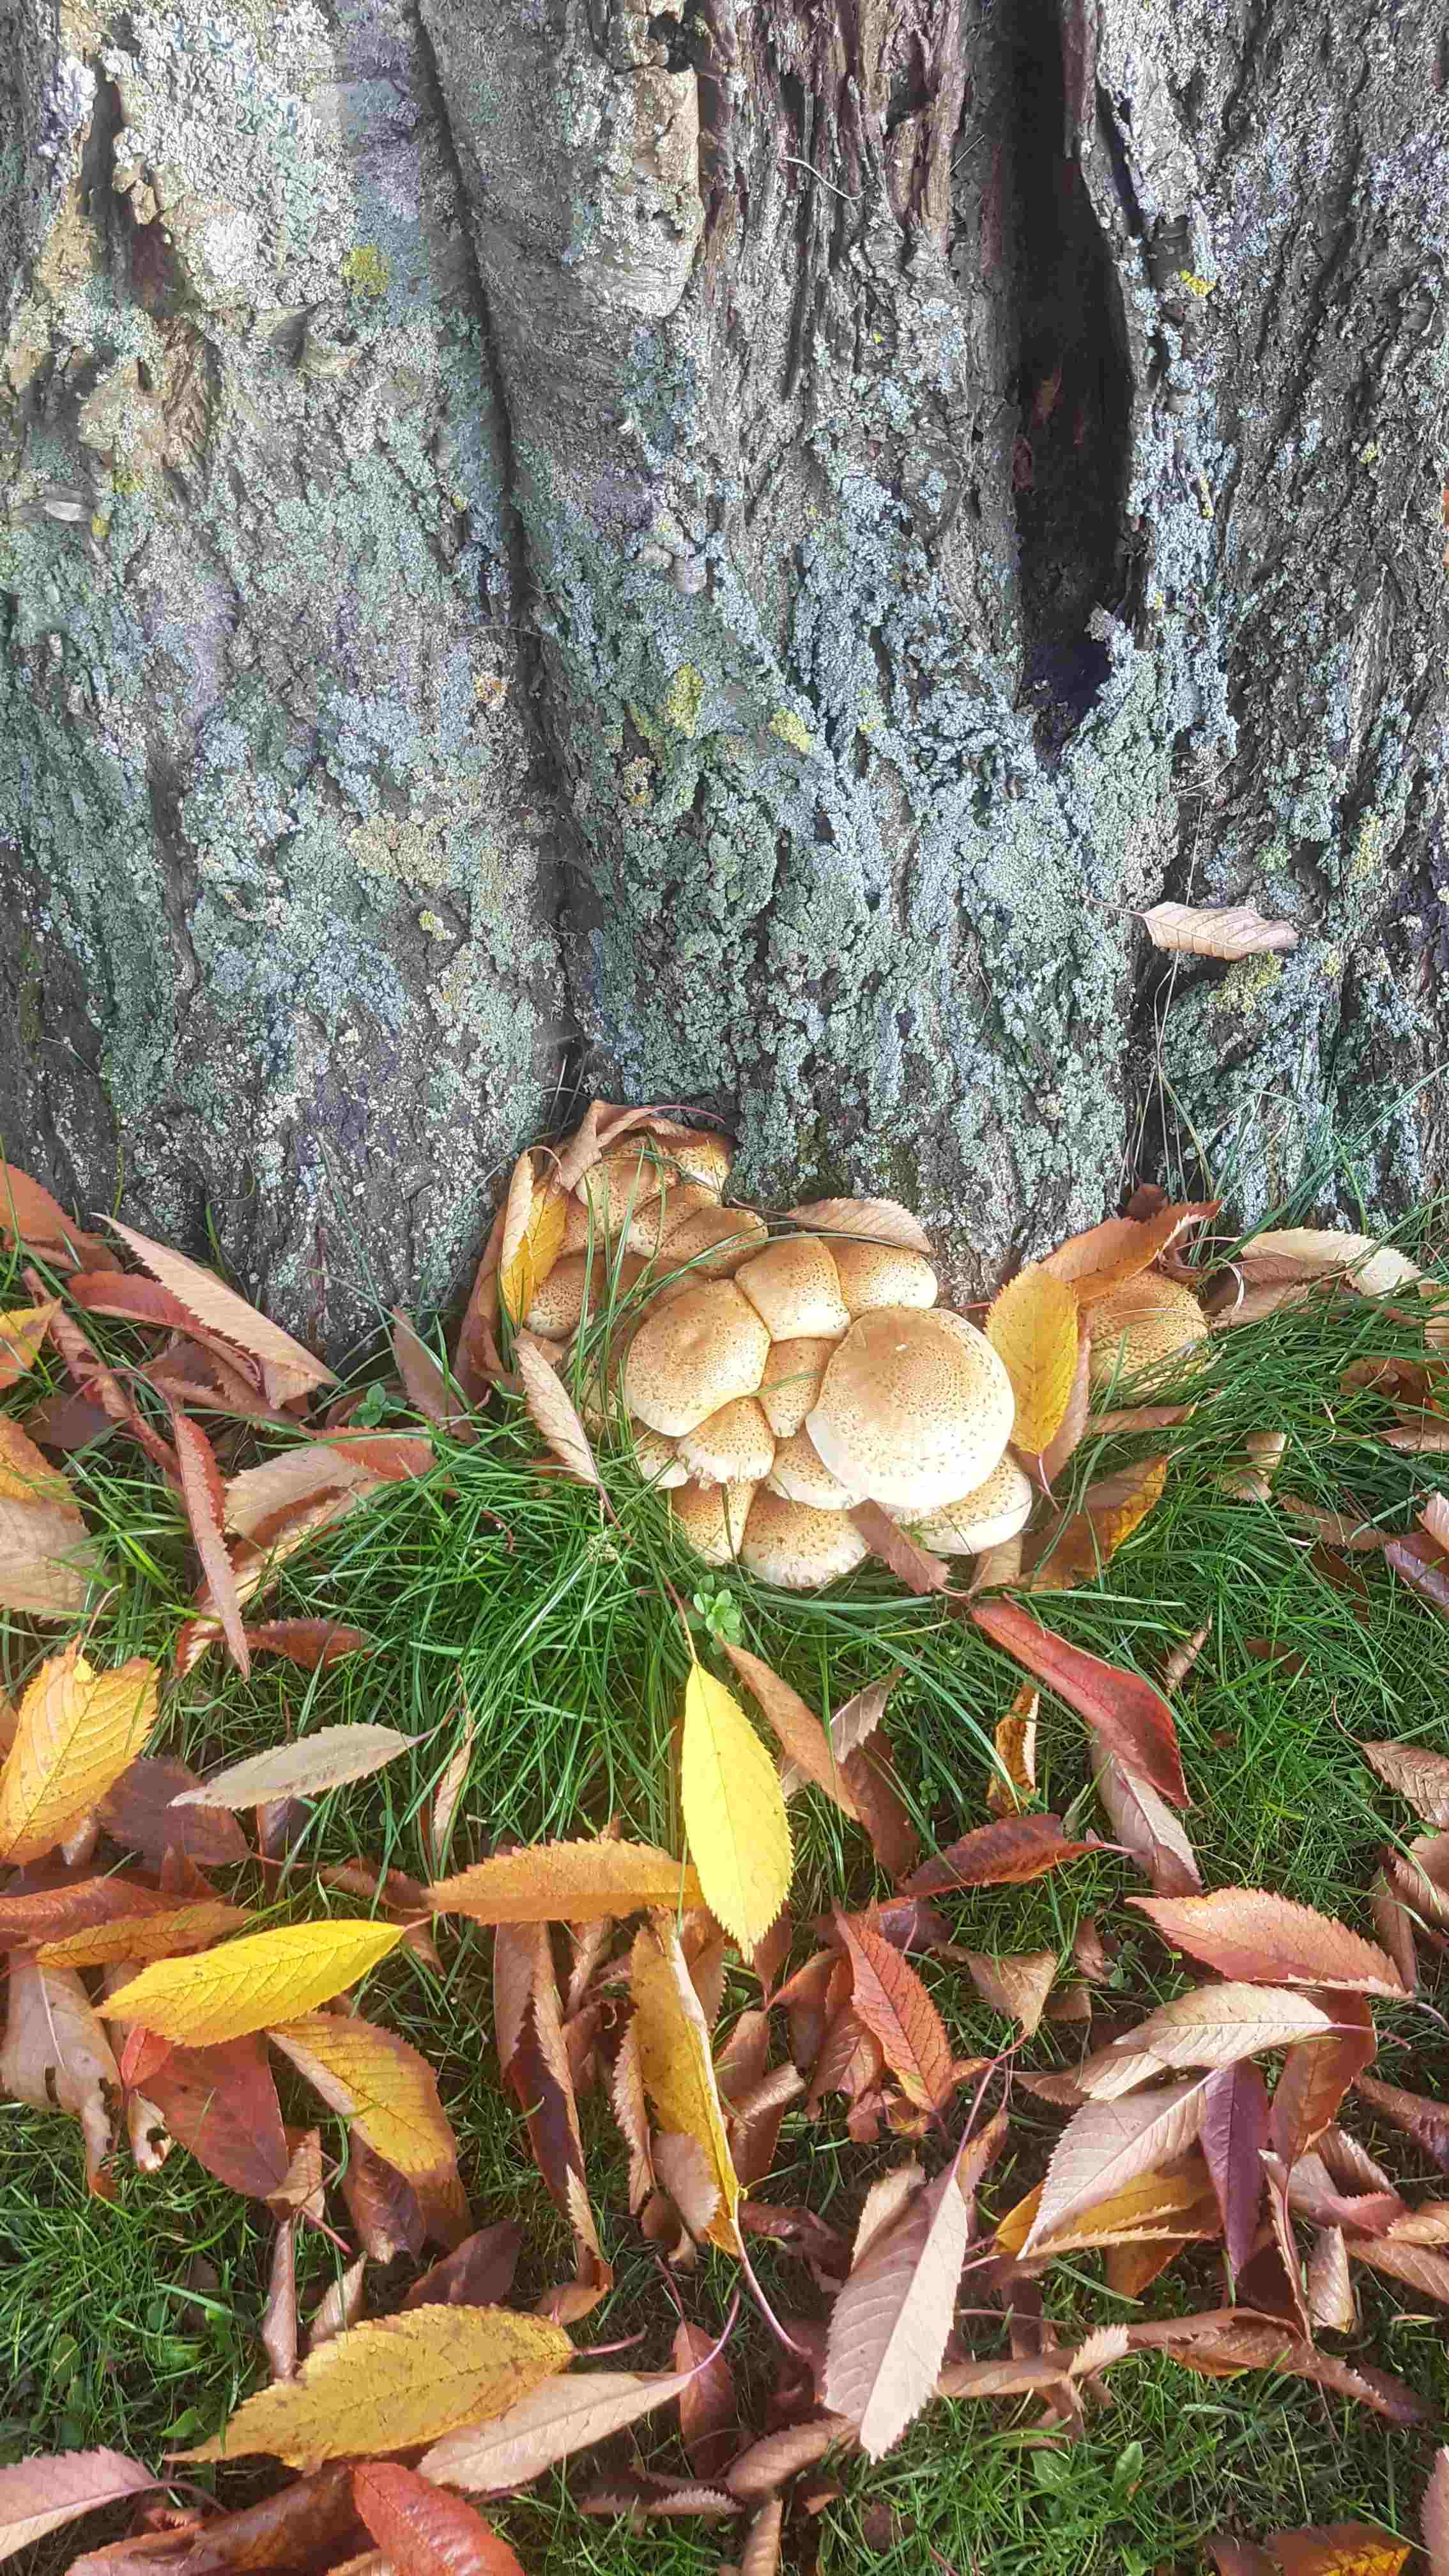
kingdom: Fungi
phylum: Basidiomycota
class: Agaricomycetes
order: Agaricales
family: Strophariaceae
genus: Pholiota
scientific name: Pholiota squarrosa
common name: krumskællet skælhat
